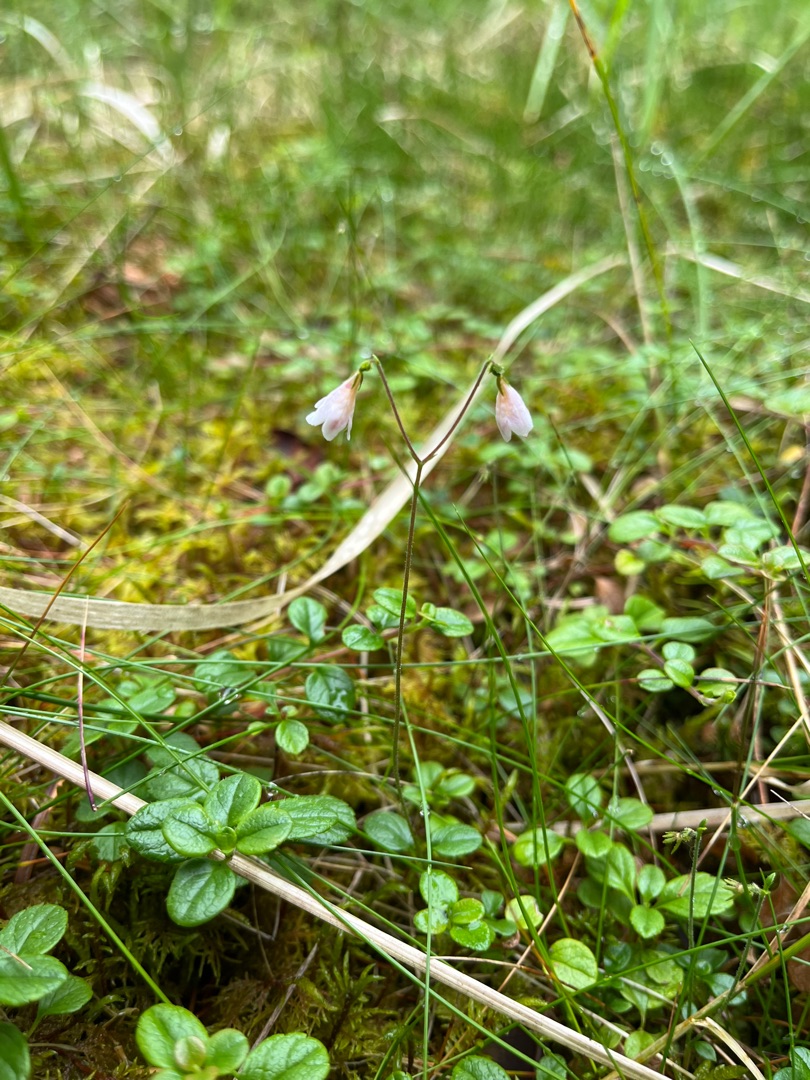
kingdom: Plantae
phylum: Tracheophyta
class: Magnoliopsida
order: Dipsacales
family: Caprifoliaceae
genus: Linnaea
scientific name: Linnaea borealis
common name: Linnæa
